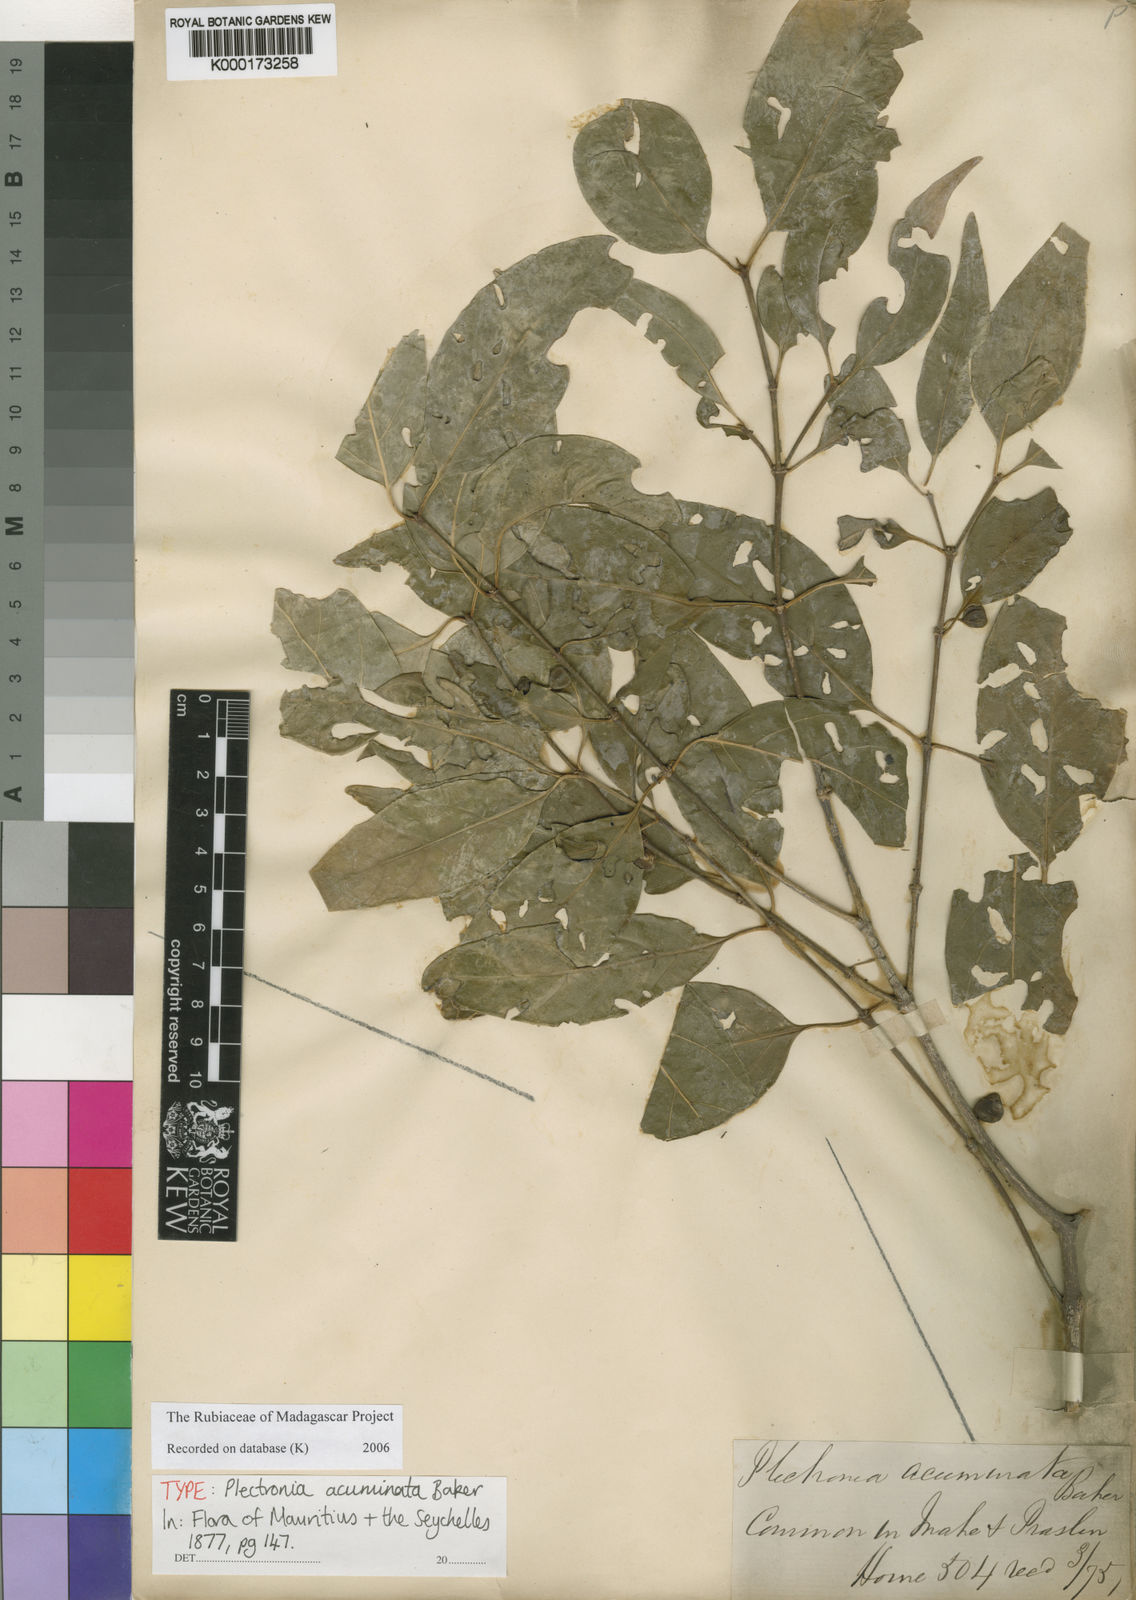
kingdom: Plantae
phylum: Tracheophyta
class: Magnoliopsida
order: Gentianales
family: Rubiaceae
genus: Peponidium
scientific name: Peponidium carinatum
